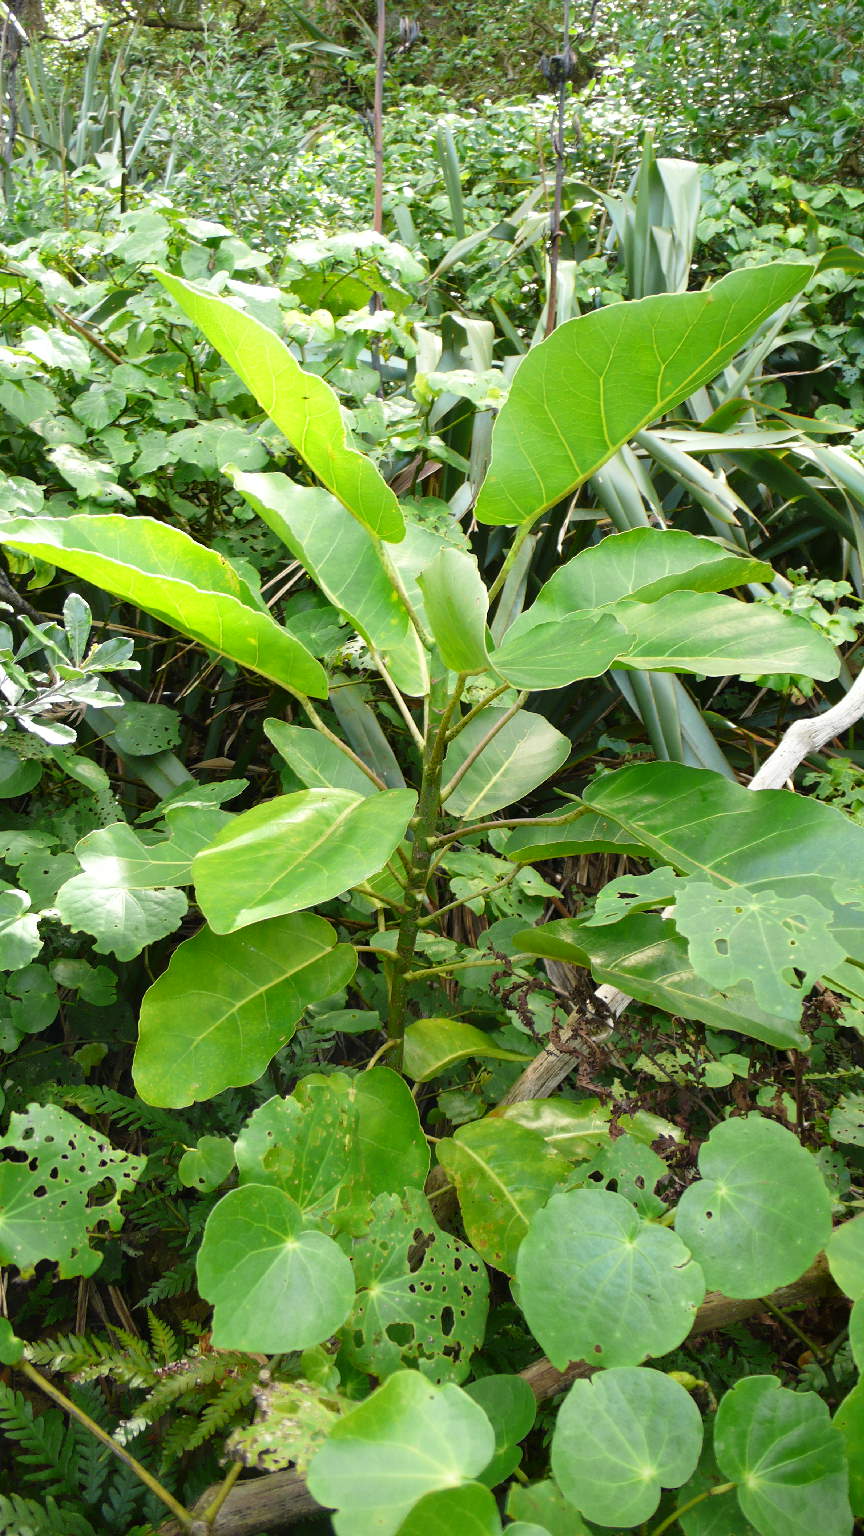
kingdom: Plantae
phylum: Tracheophyta
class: Magnoliopsida
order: Apiales
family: Araliaceae
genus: Meryta
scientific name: Meryta sinclairii
